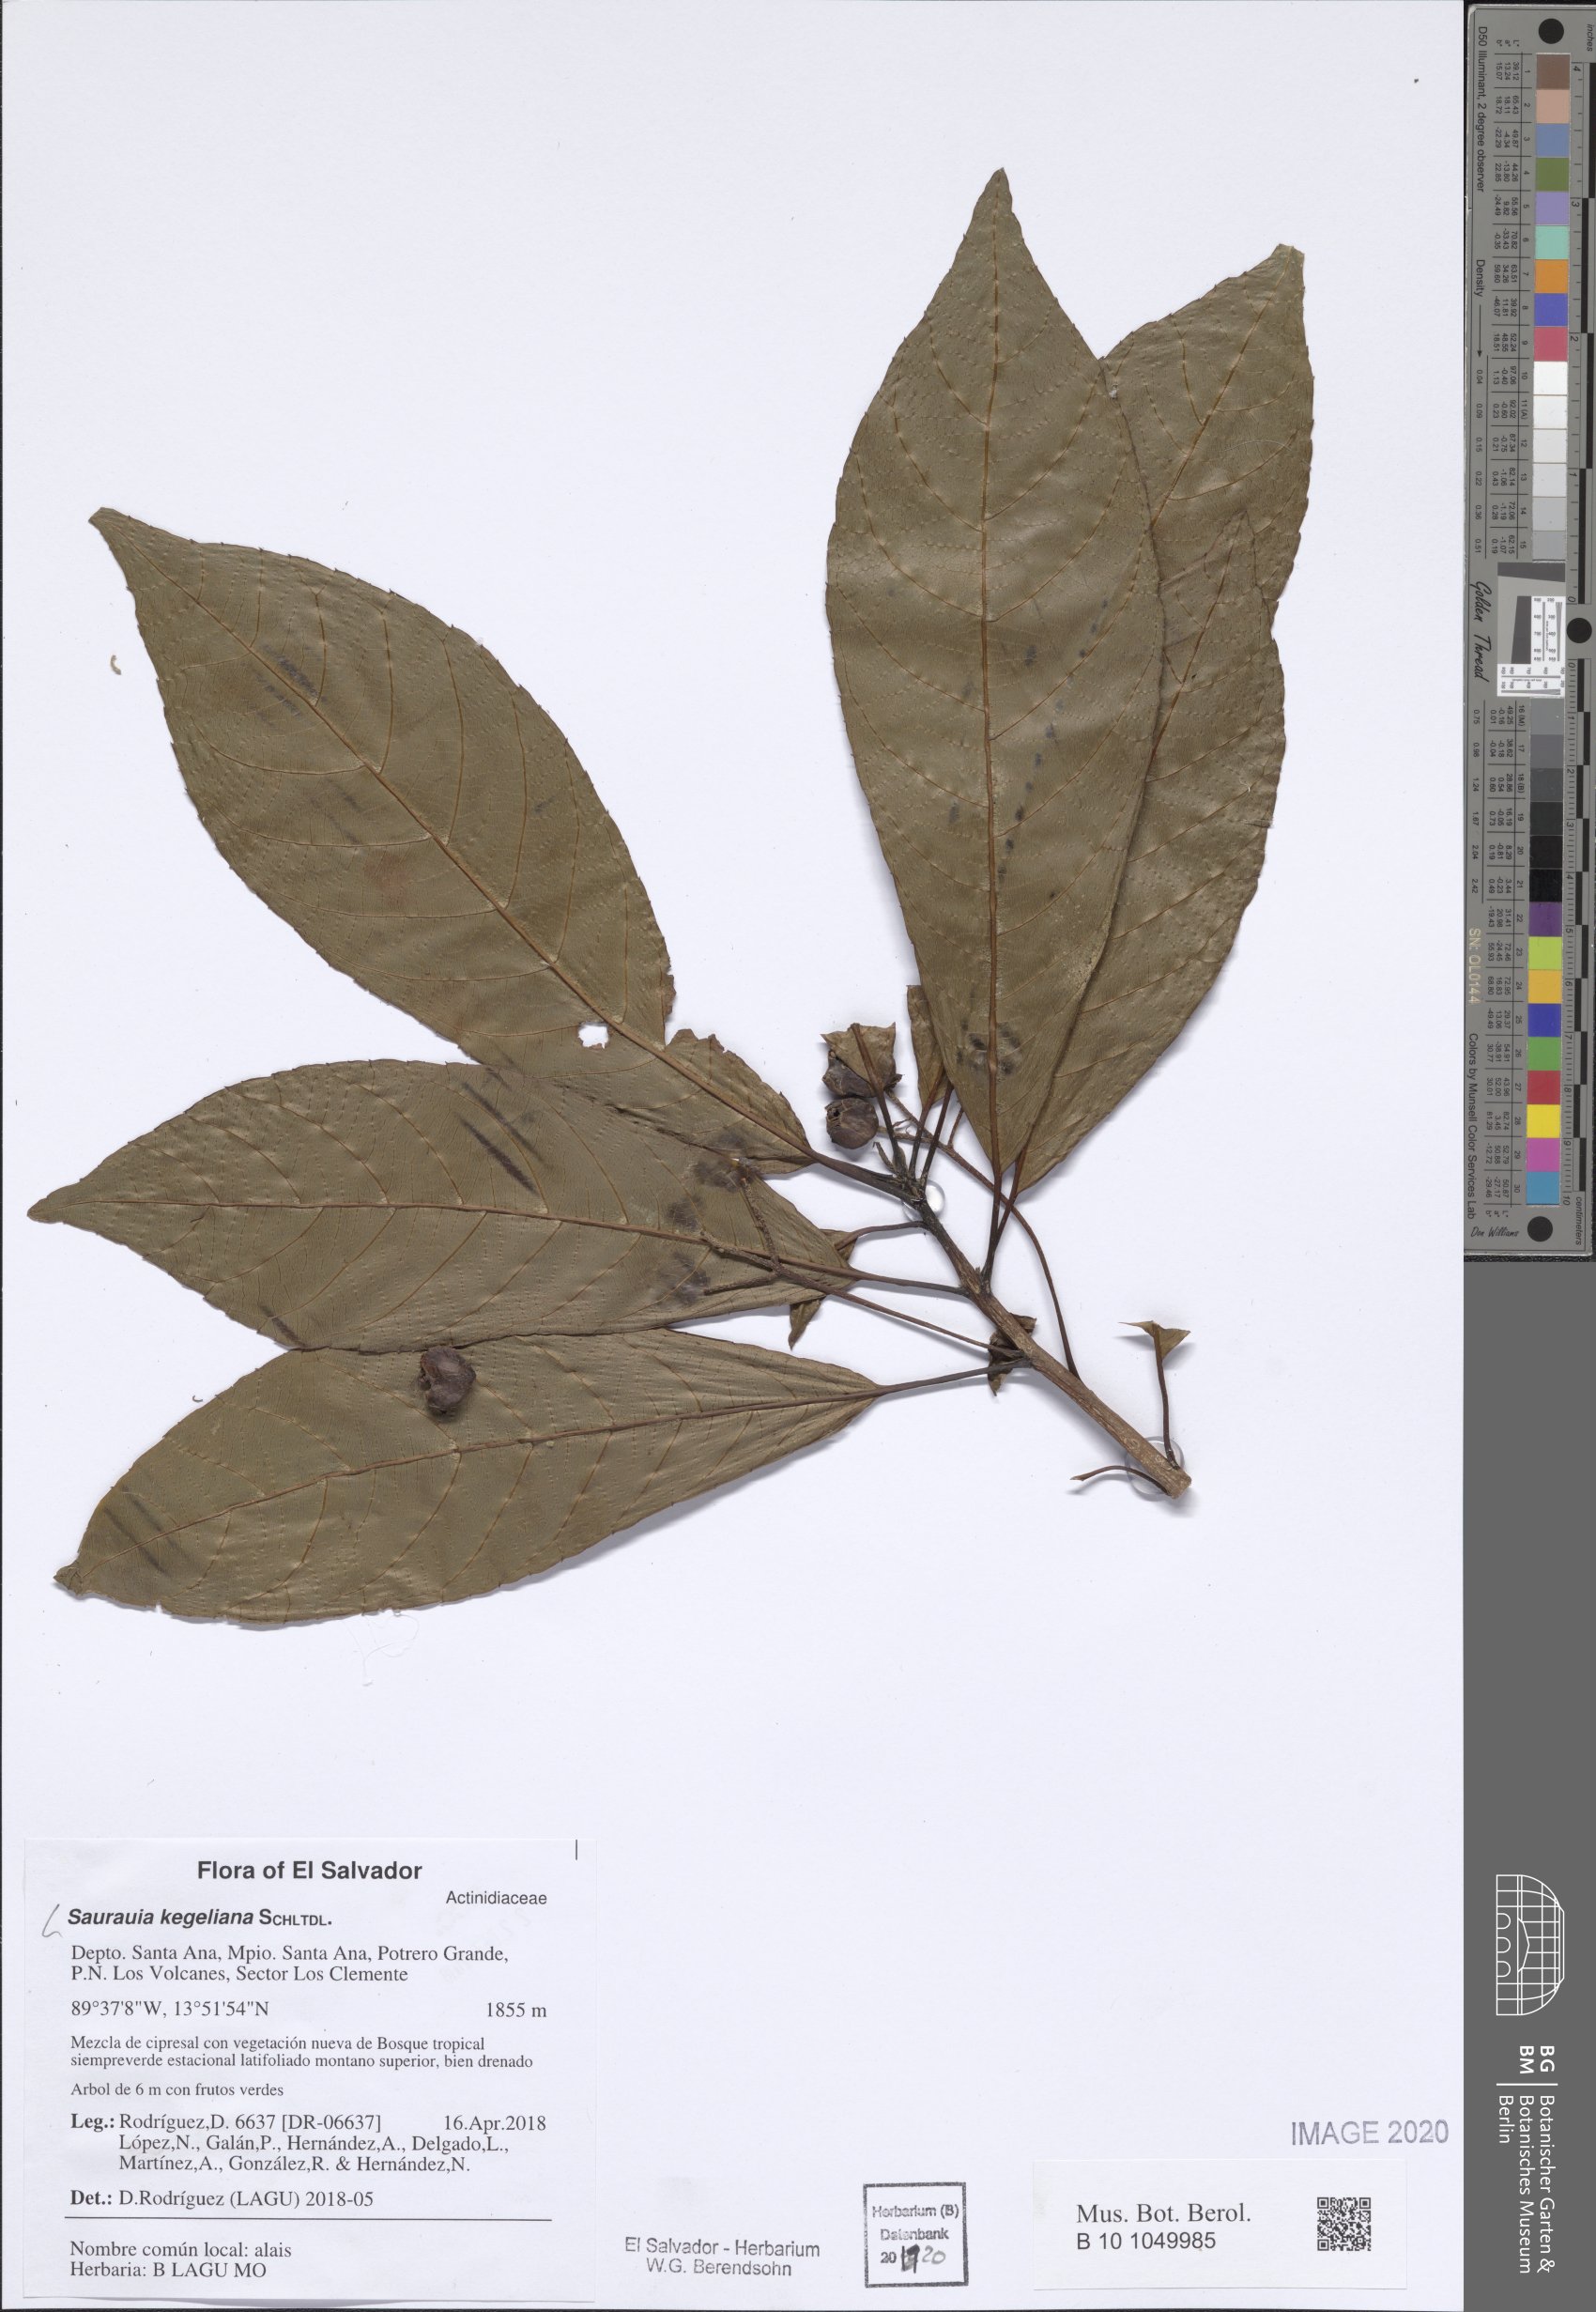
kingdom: Plantae
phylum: Tracheophyta
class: Magnoliopsida
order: Ericales
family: Actinidiaceae
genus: Saurauia
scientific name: Saurauia kegeliana
